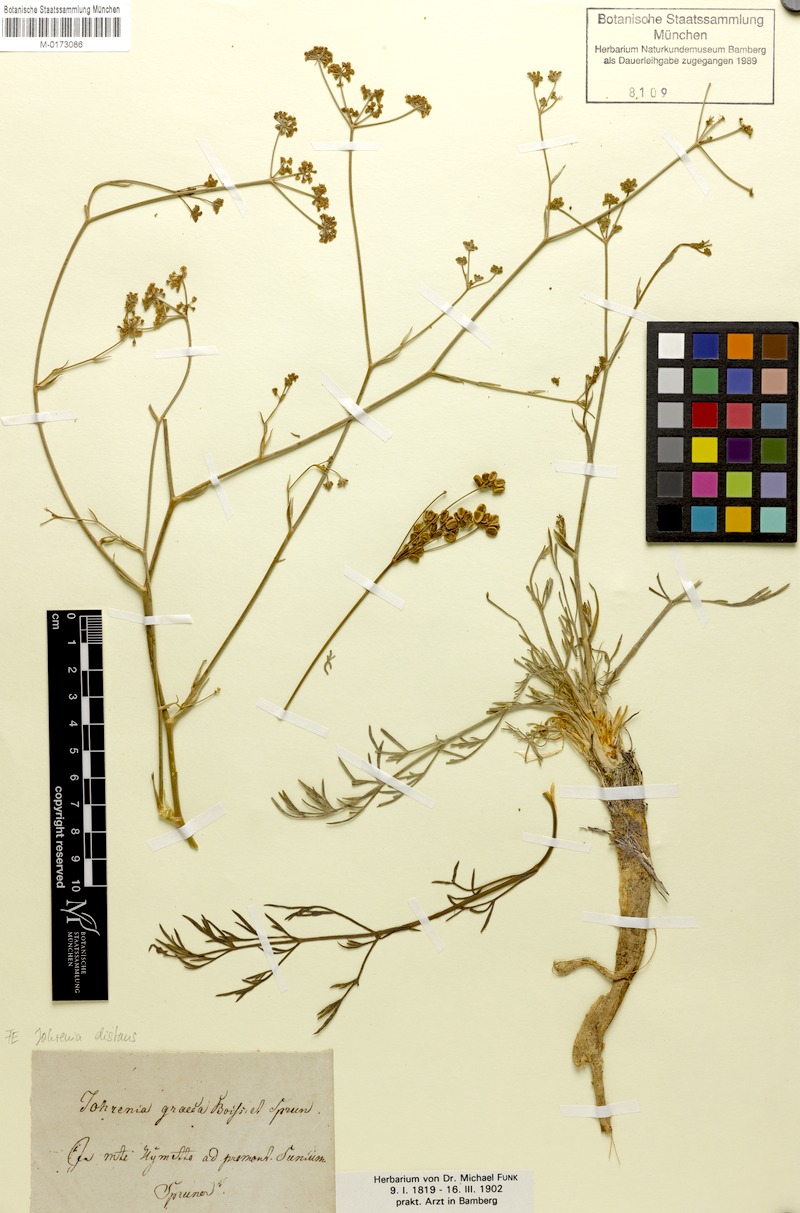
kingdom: Plantae
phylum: Tracheophyta
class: Magnoliopsida
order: Apiales
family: Apiaceae
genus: Johrenia
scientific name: Johrenia distans
